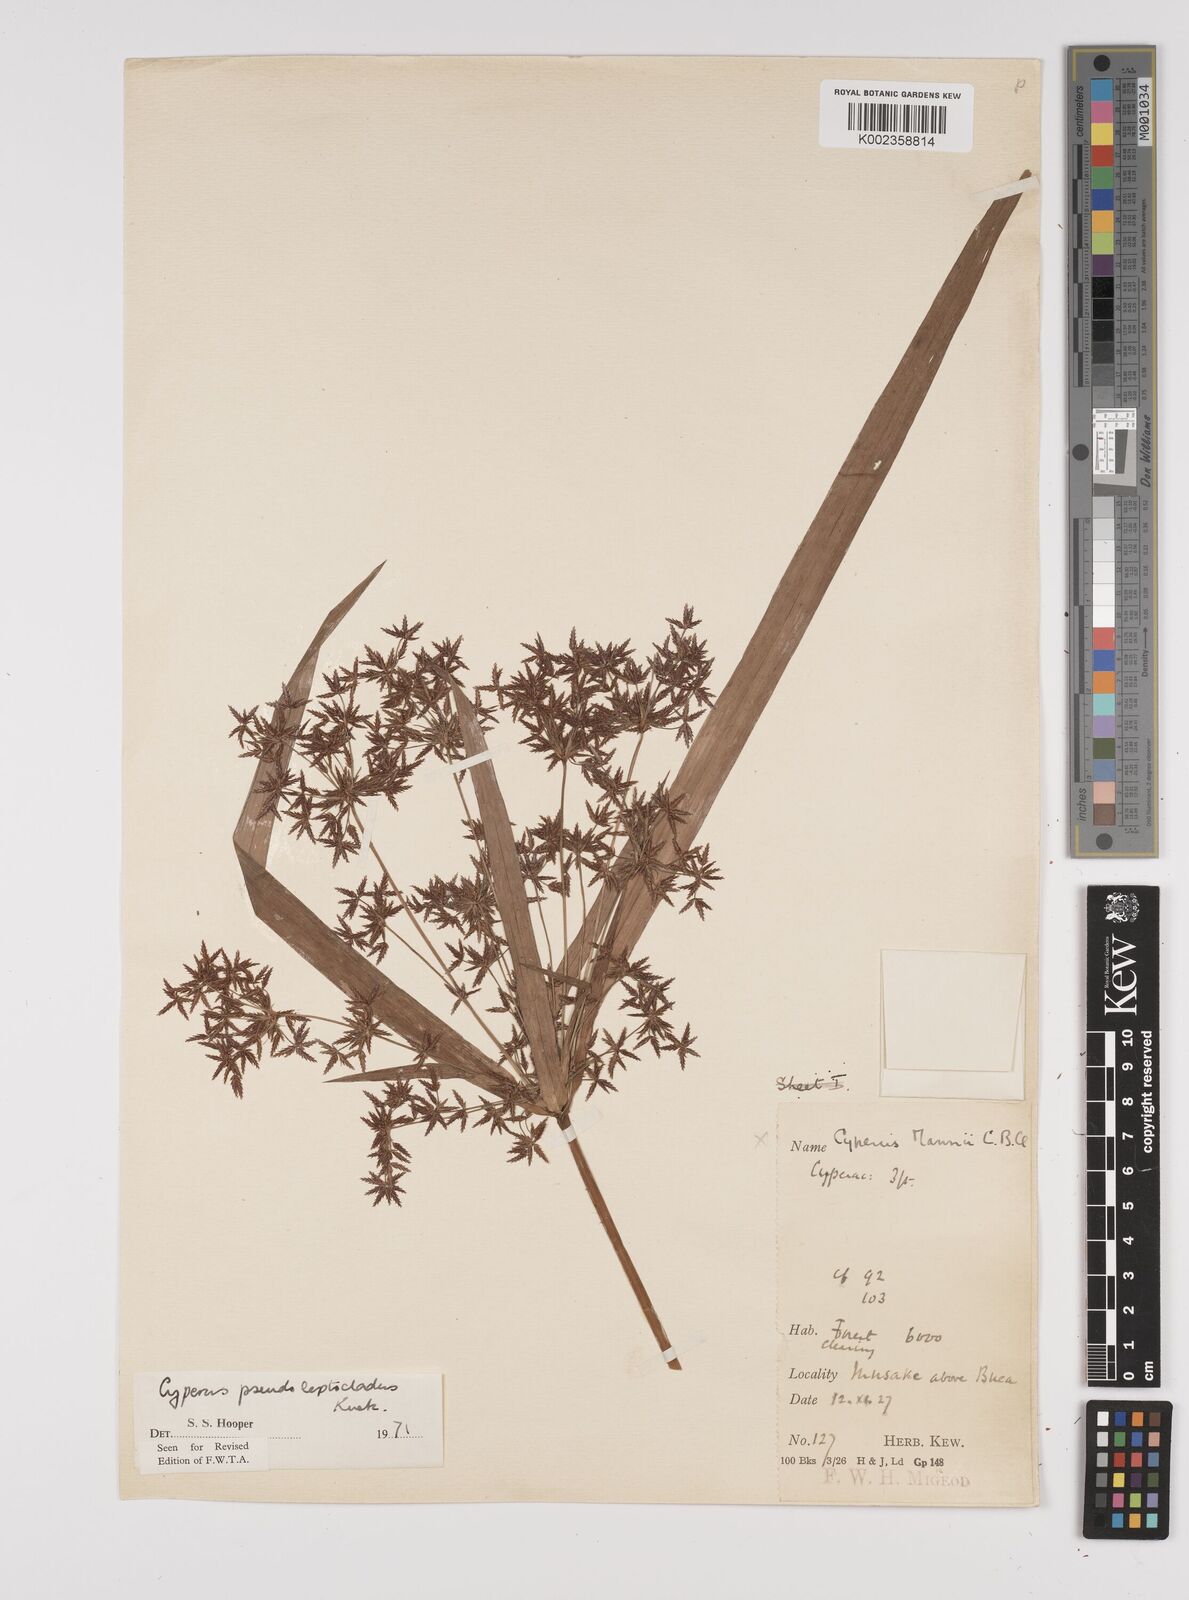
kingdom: Plantae
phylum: Tracheophyta
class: Liliopsida
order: Poales
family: Cyperaceae
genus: Cyperus
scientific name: Cyperus glaucophyllus
